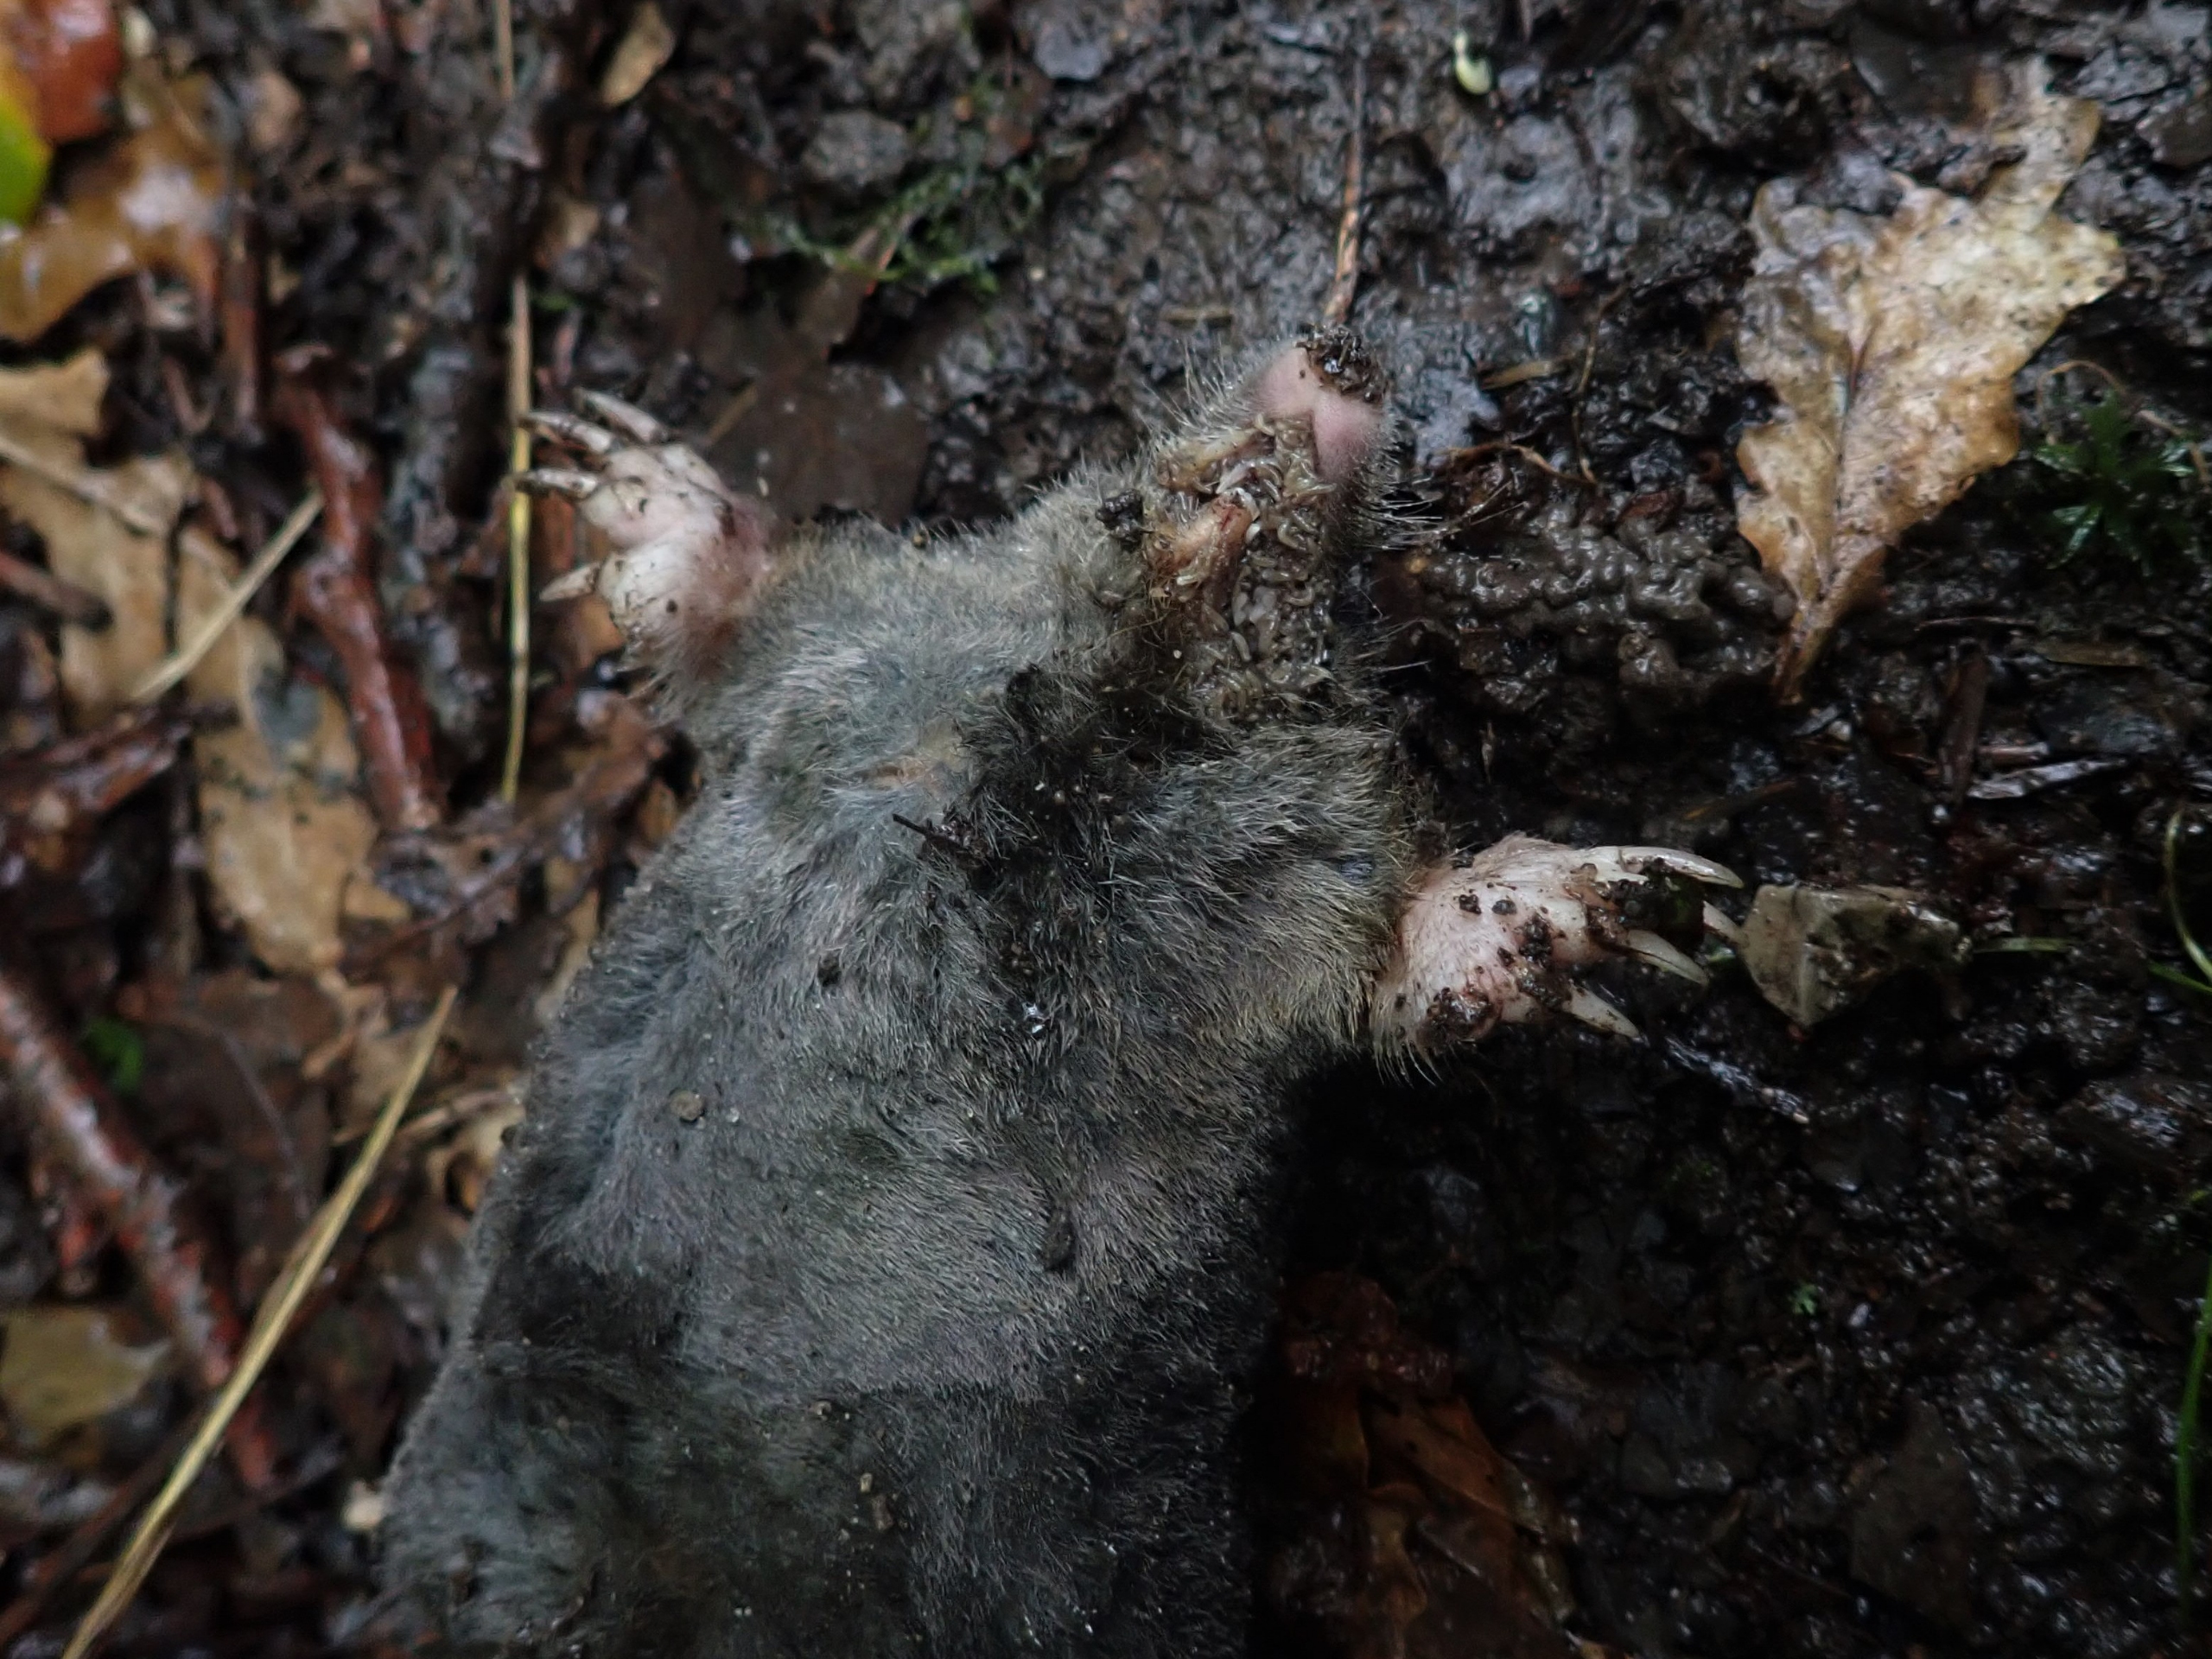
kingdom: Animalia
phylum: Chordata
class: Mammalia
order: Soricomorpha
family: Talpidae
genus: Talpa
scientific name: Talpa europaea
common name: Muldvarp
